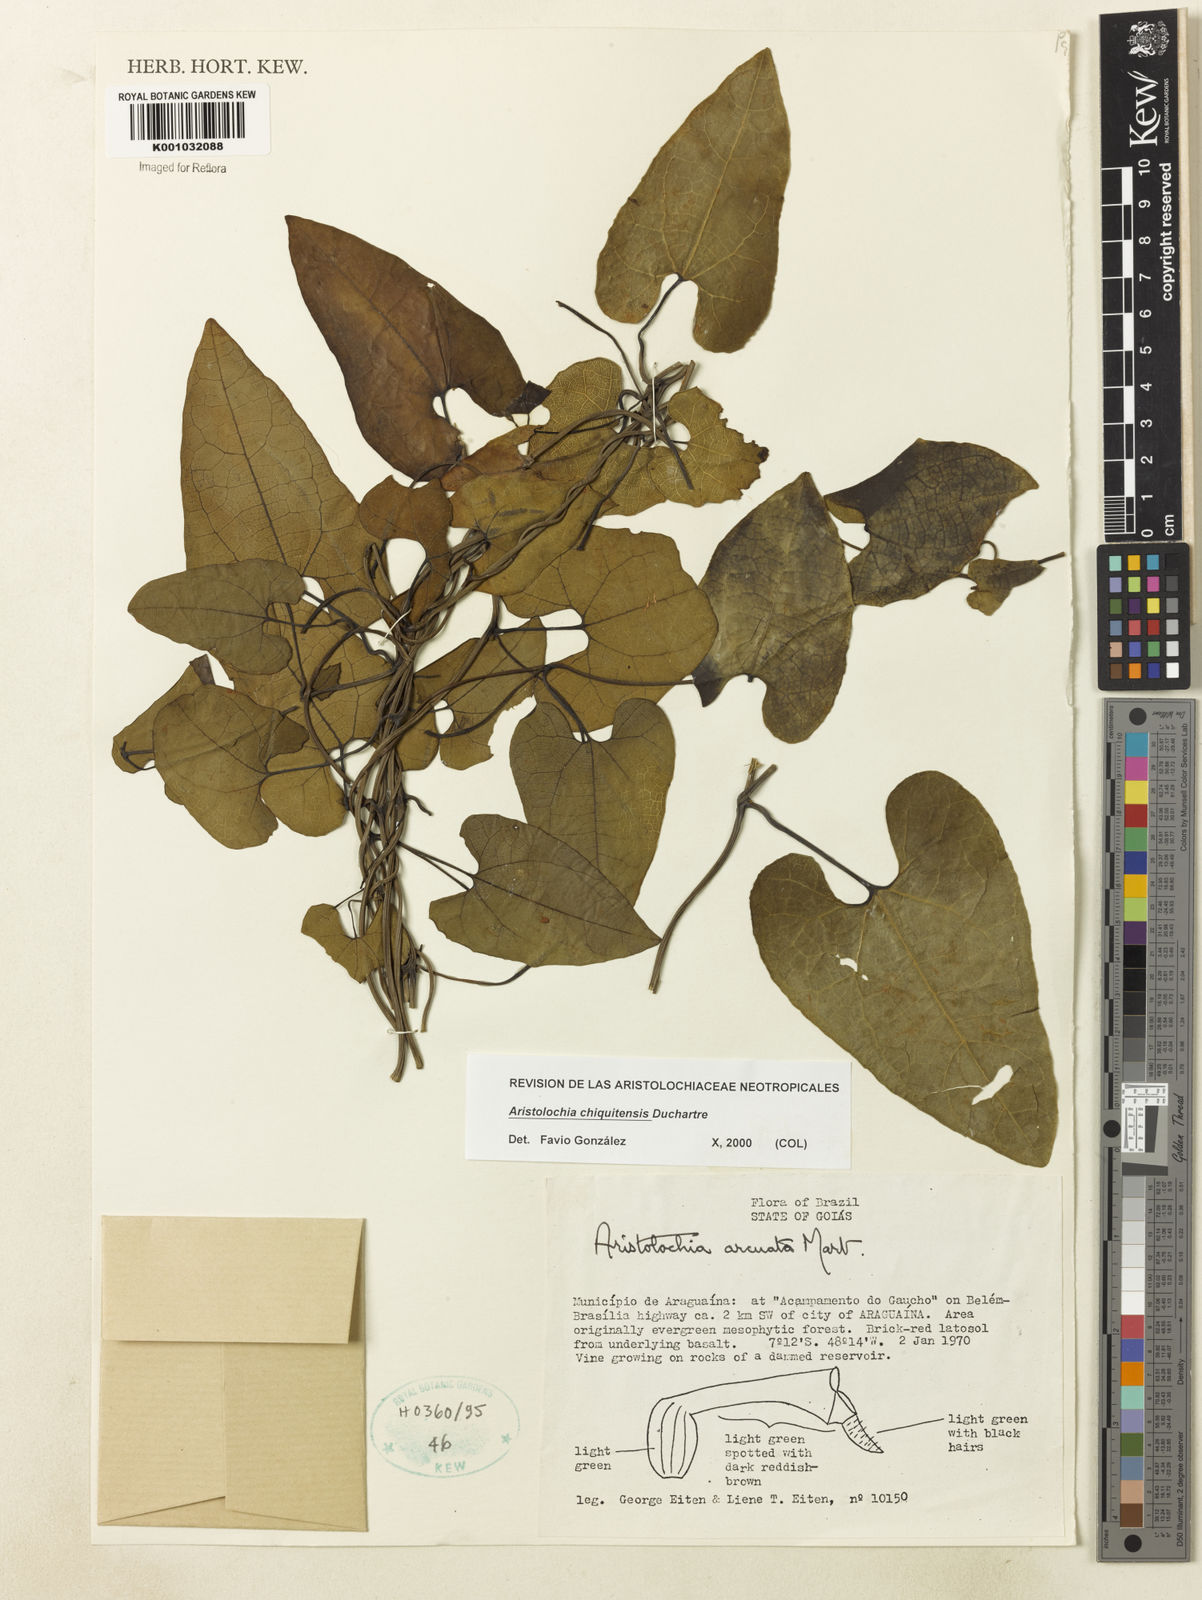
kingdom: Plantae
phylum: Tracheophyta
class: Magnoliopsida
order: Piperales
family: Aristolochiaceae
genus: Aristolochia
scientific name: Aristolochia chiquitensis
